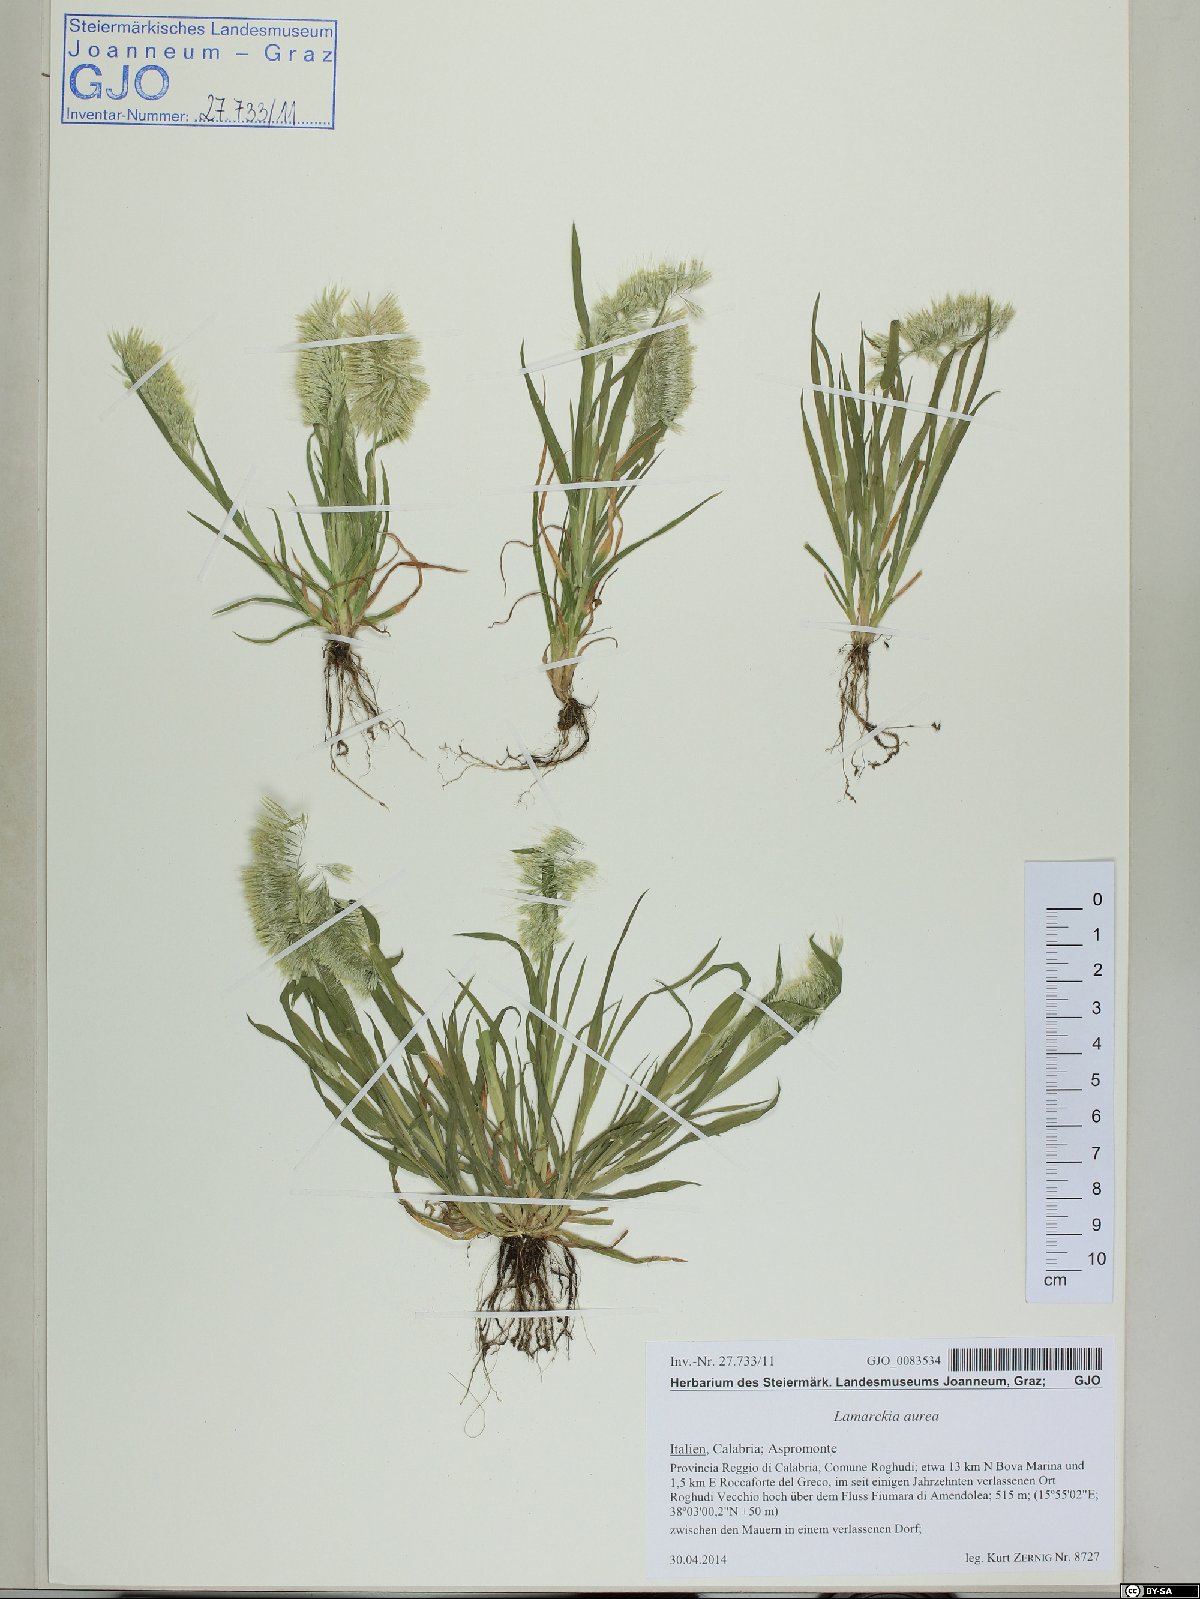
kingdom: Plantae
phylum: Tracheophyta
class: Liliopsida
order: Poales
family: Poaceae
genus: Lamarckia
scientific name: Lamarckia aurea
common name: Golden dog's-tail
